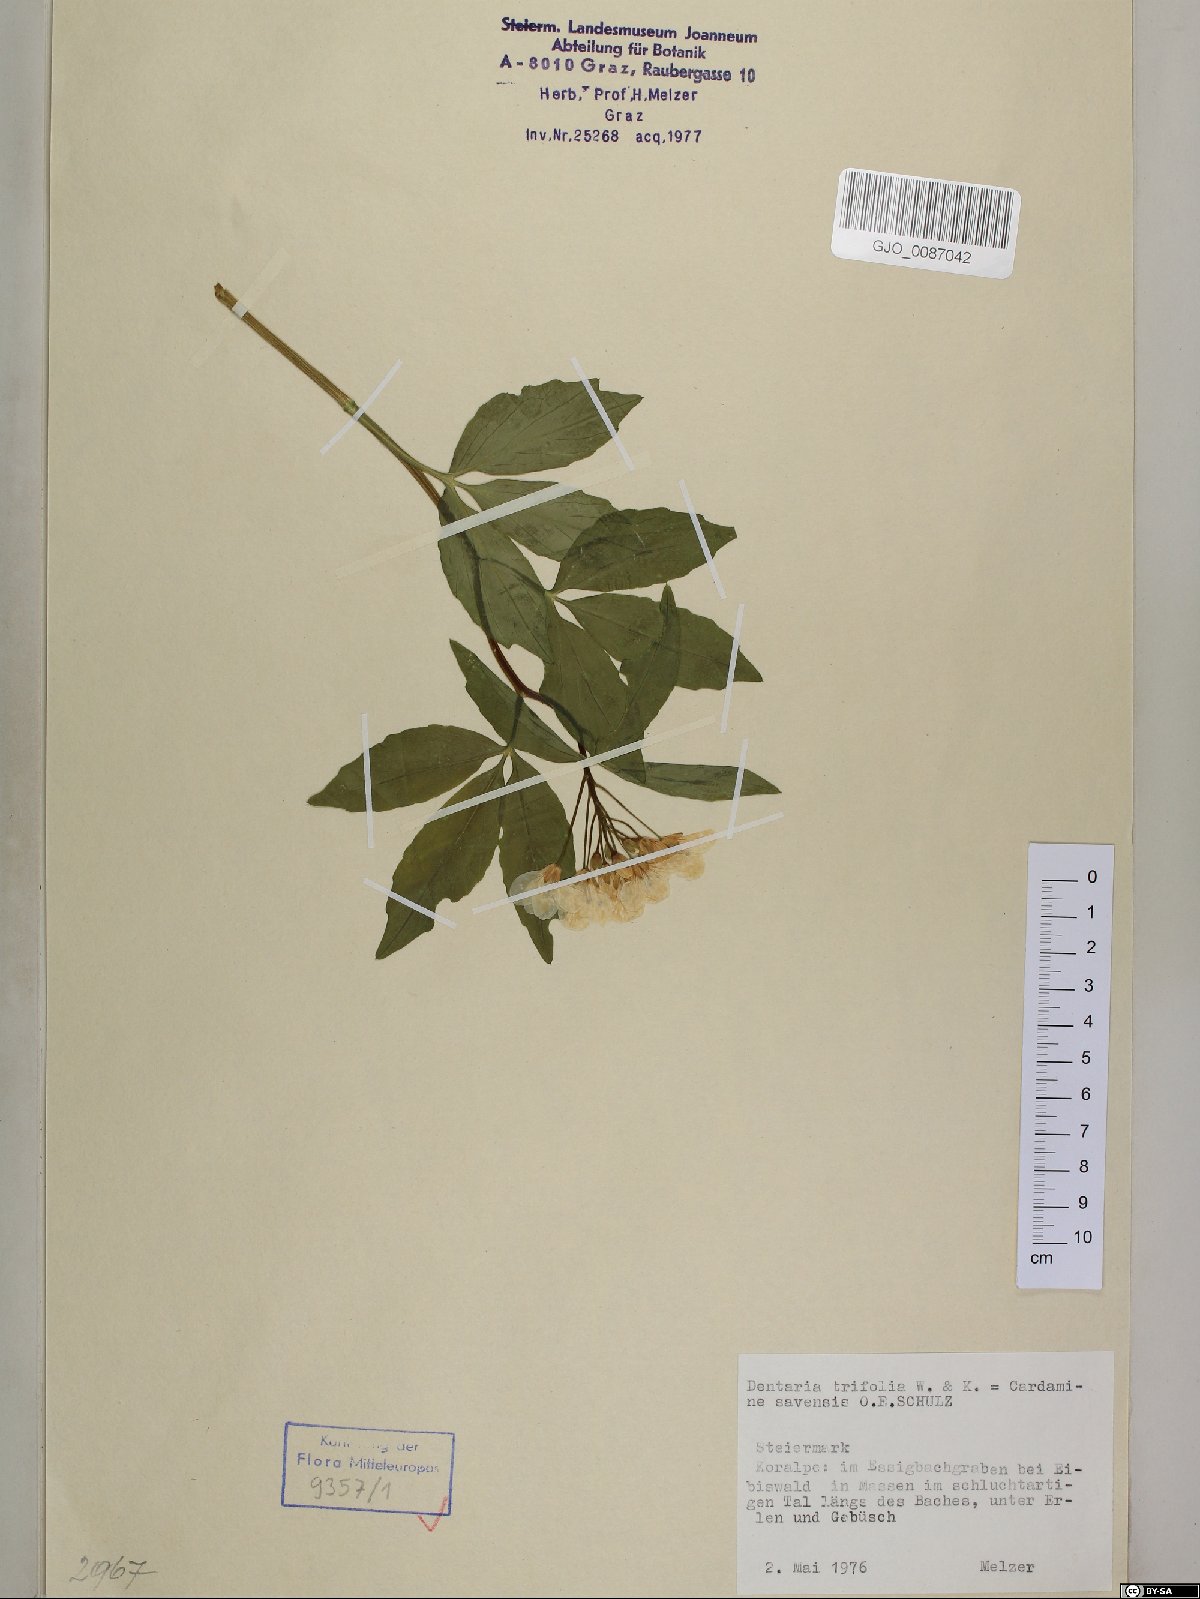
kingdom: Plantae
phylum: Tracheophyta
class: Magnoliopsida
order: Brassicales
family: Brassicaceae
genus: Cardamine
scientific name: Cardamine waldsteinii
